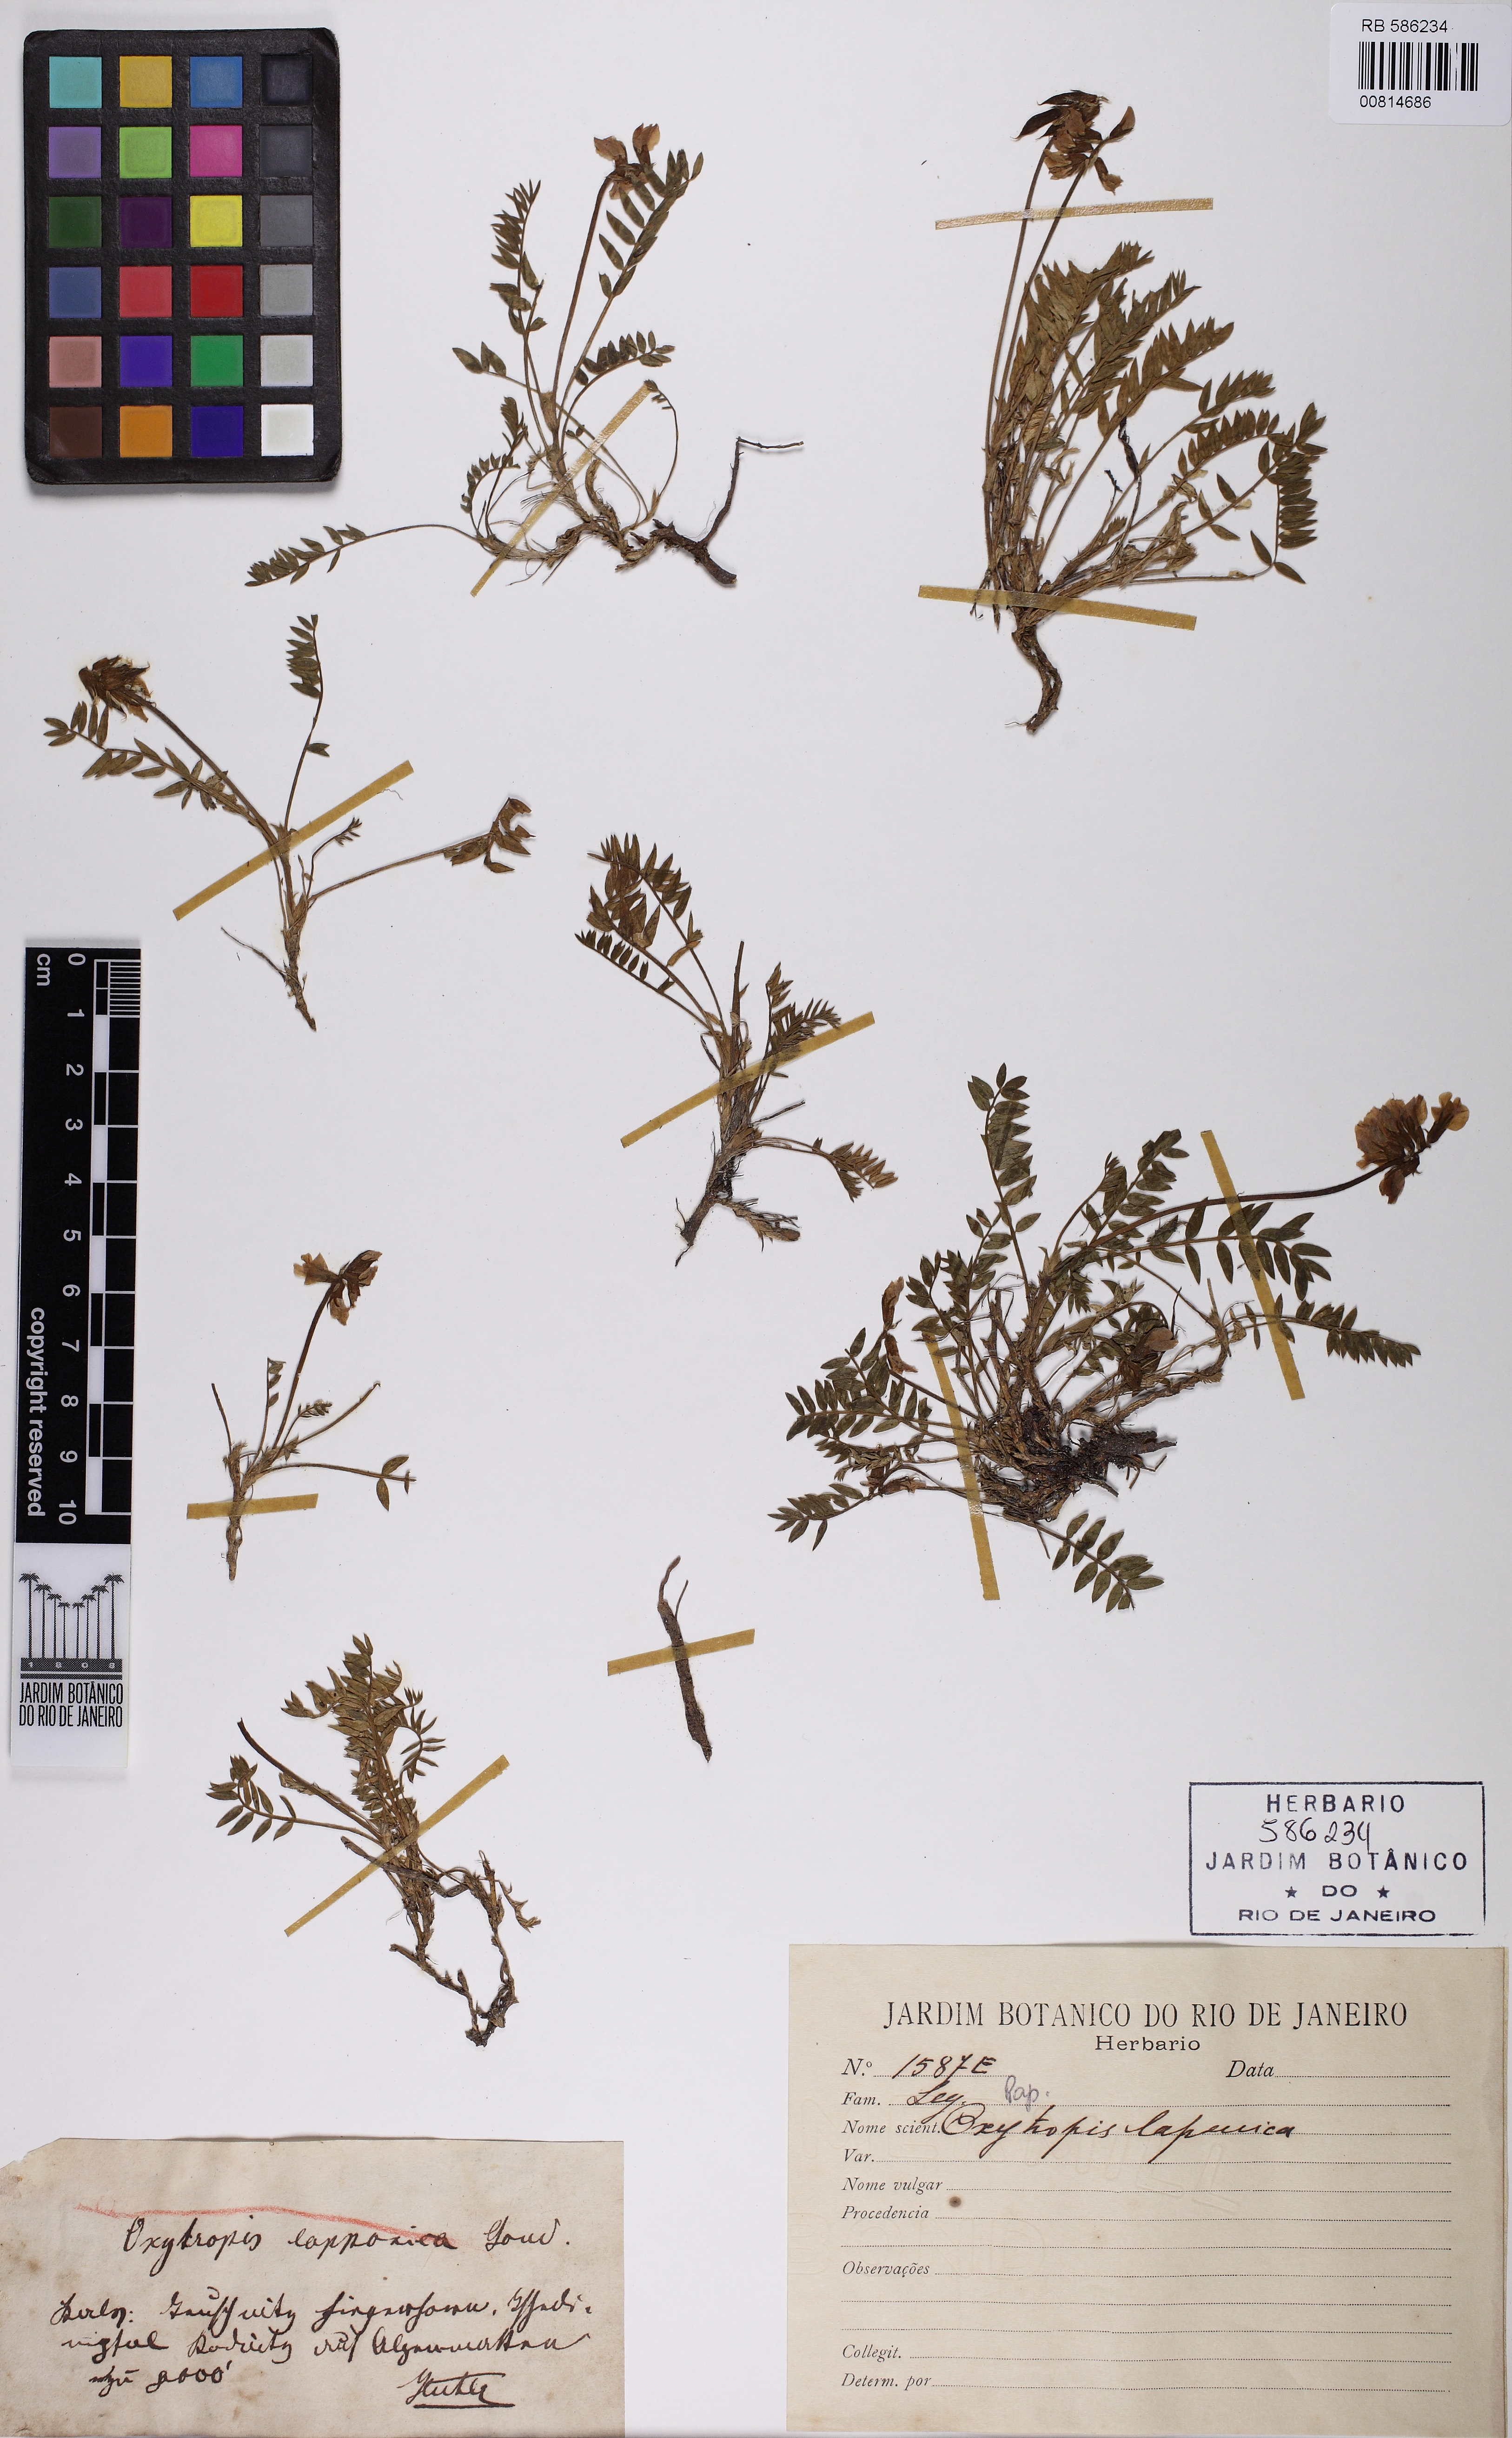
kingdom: Plantae
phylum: Tracheophyta
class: Magnoliopsida
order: Fabales
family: Fabaceae
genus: Oxytropis
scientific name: Oxytropis lapponica
